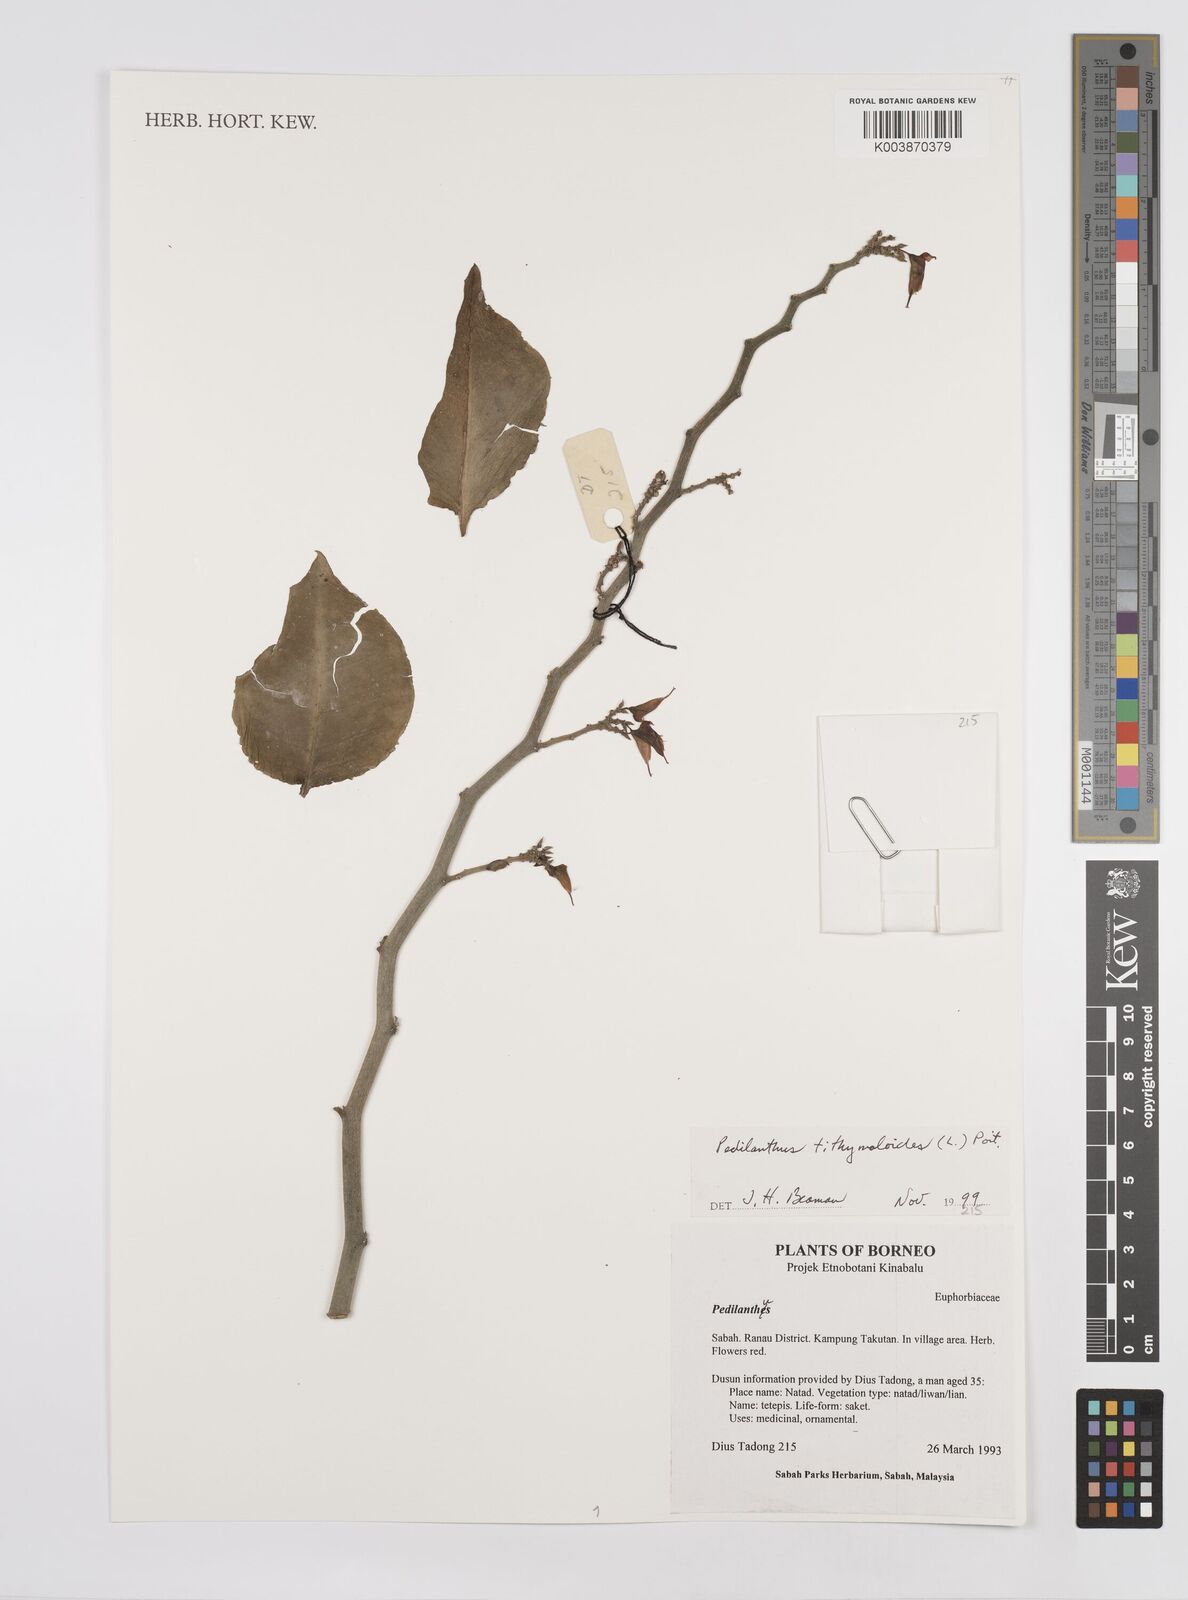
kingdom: Plantae
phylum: Tracheophyta
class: Magnoliopsida
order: Malpighiales
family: Euphorbiaceae
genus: Euphorbia
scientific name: Euphorbia tithymaloides
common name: Slipperplant
